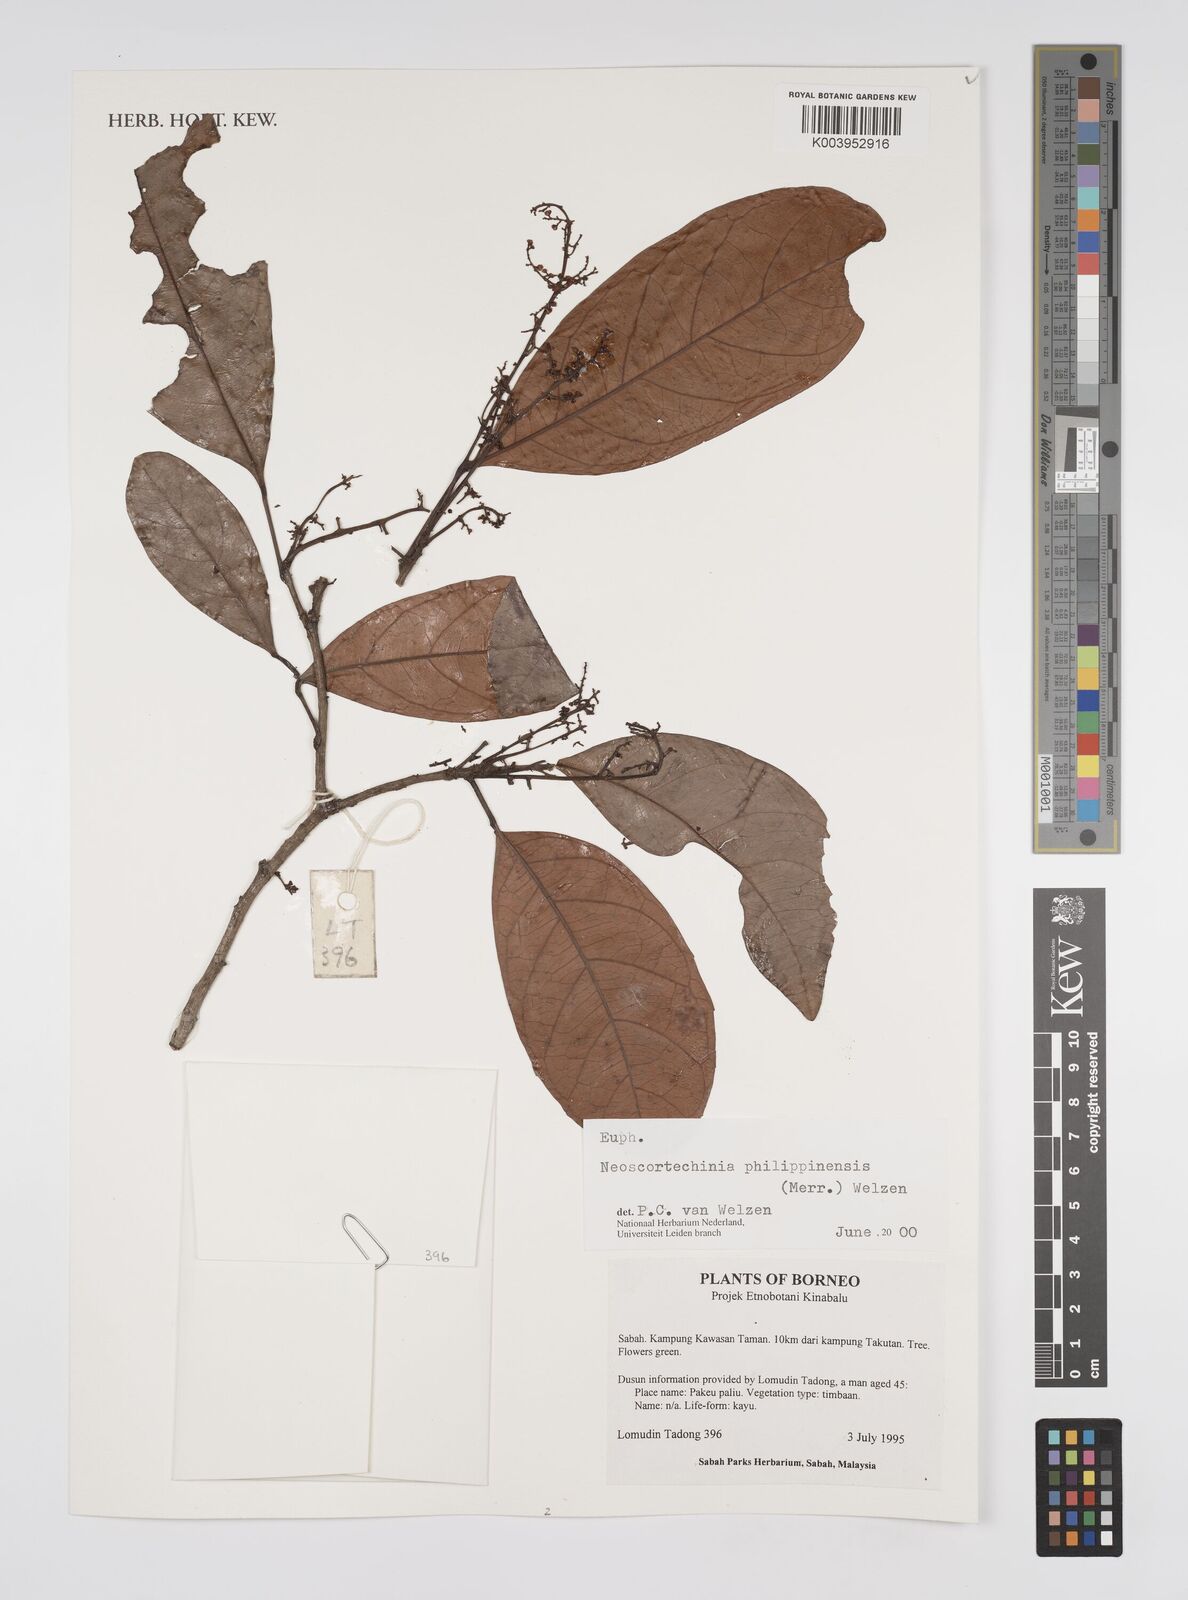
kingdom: Plantae
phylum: Tracheophyta
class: Magnoliopsida
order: Malpighiales
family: Euphorbiaceae
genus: Neoscortechinia
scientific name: Neoscortechinia philippinensis
